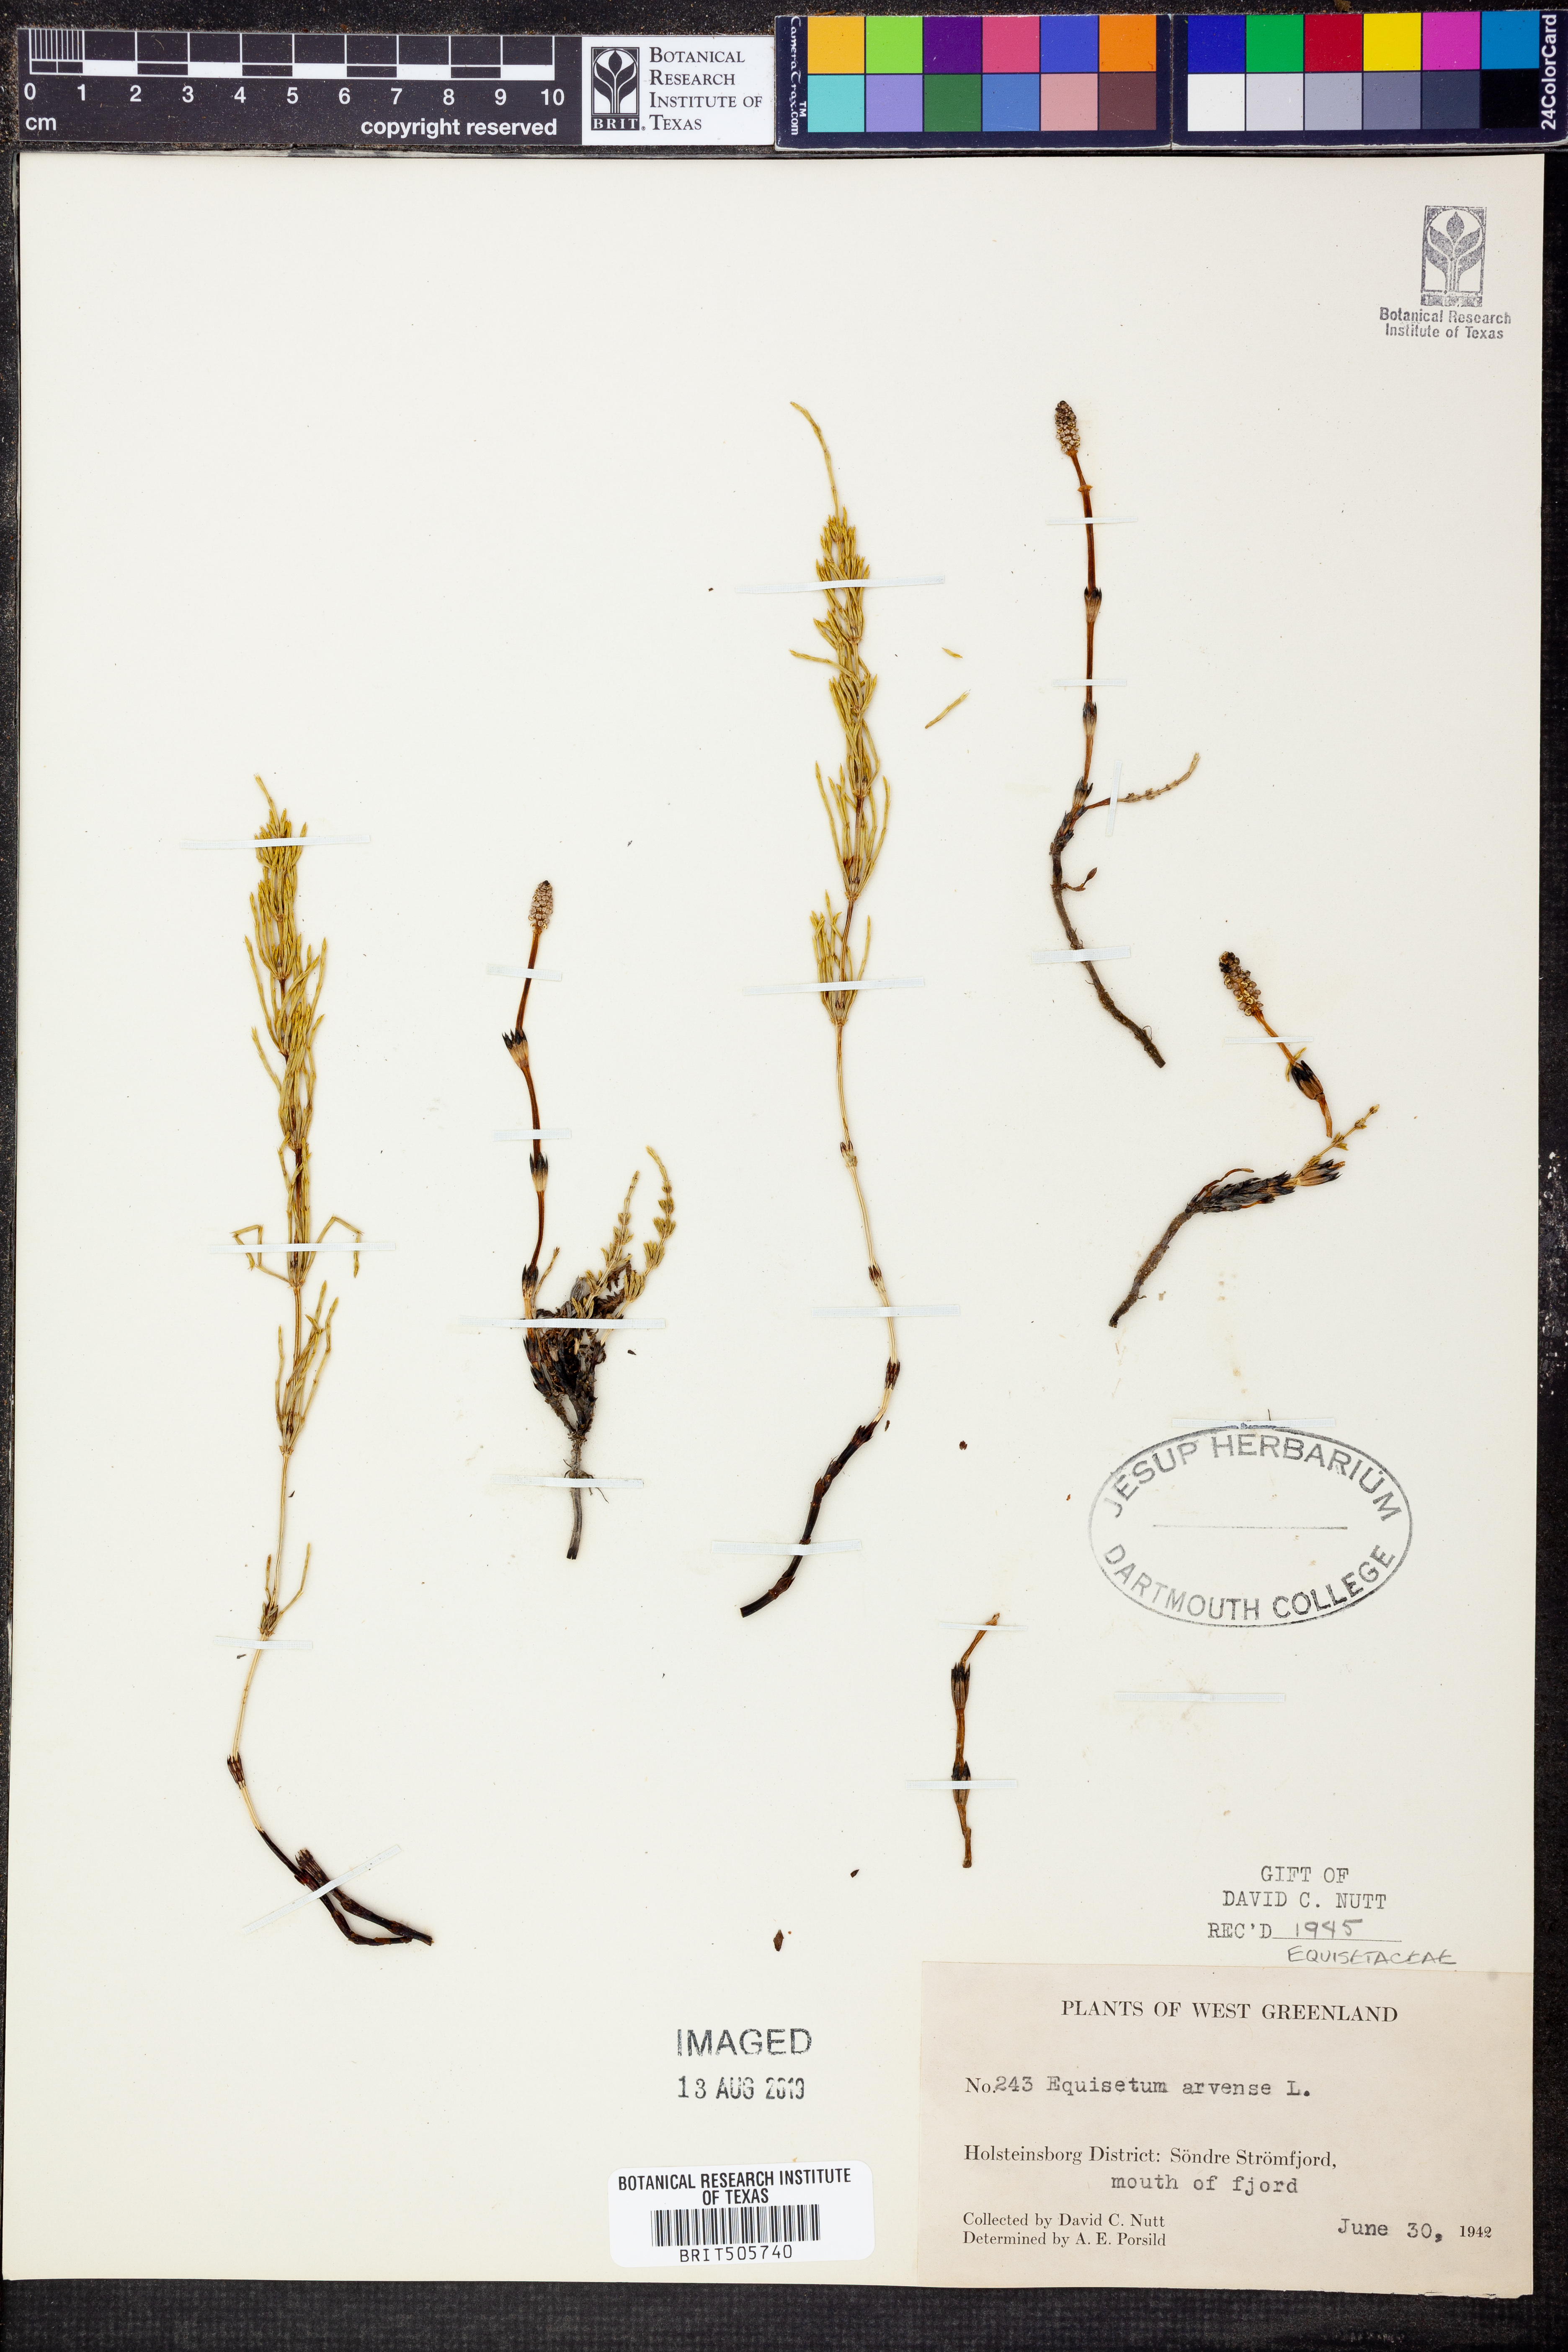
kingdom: Plantae
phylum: Tracheophyta
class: Polypodiopsida
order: Equisetales
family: Equisetaceae
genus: Equisetum
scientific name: Equisetum arvense
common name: Field horsetail
